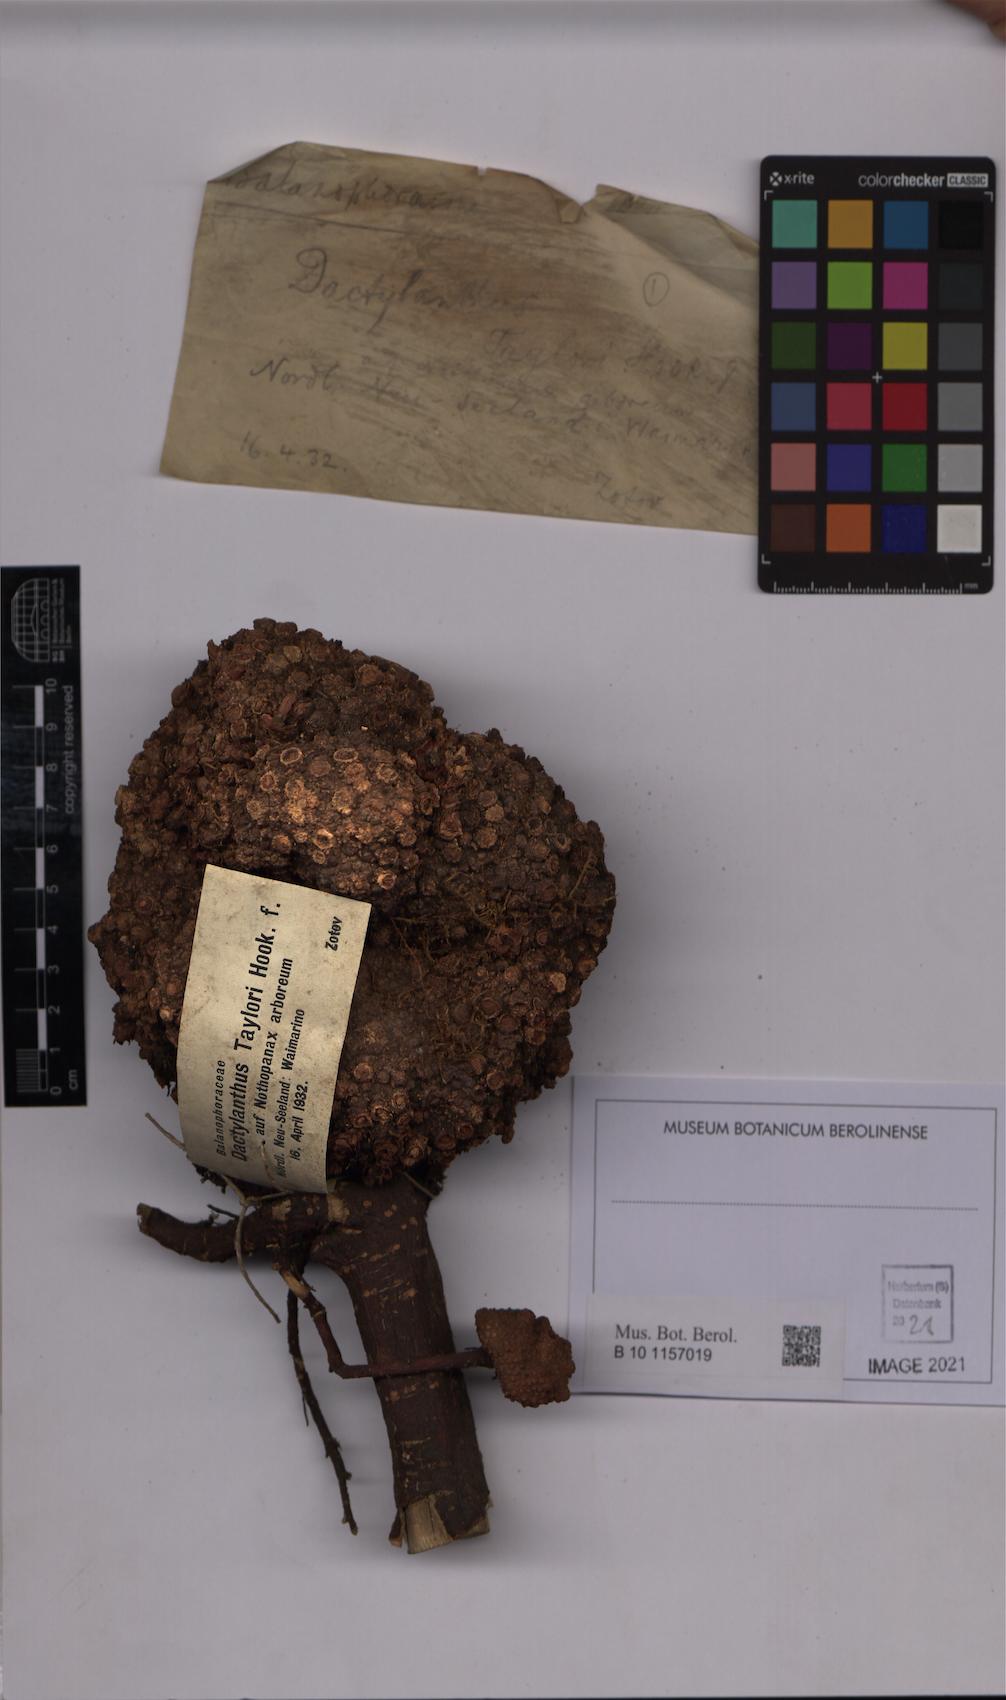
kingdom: Plantae
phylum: Tracheophyta
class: Magnoliopsida
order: Santalales
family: Mystropetalaceae
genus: Dactylanthus
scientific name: Dactylanthus taylorii
